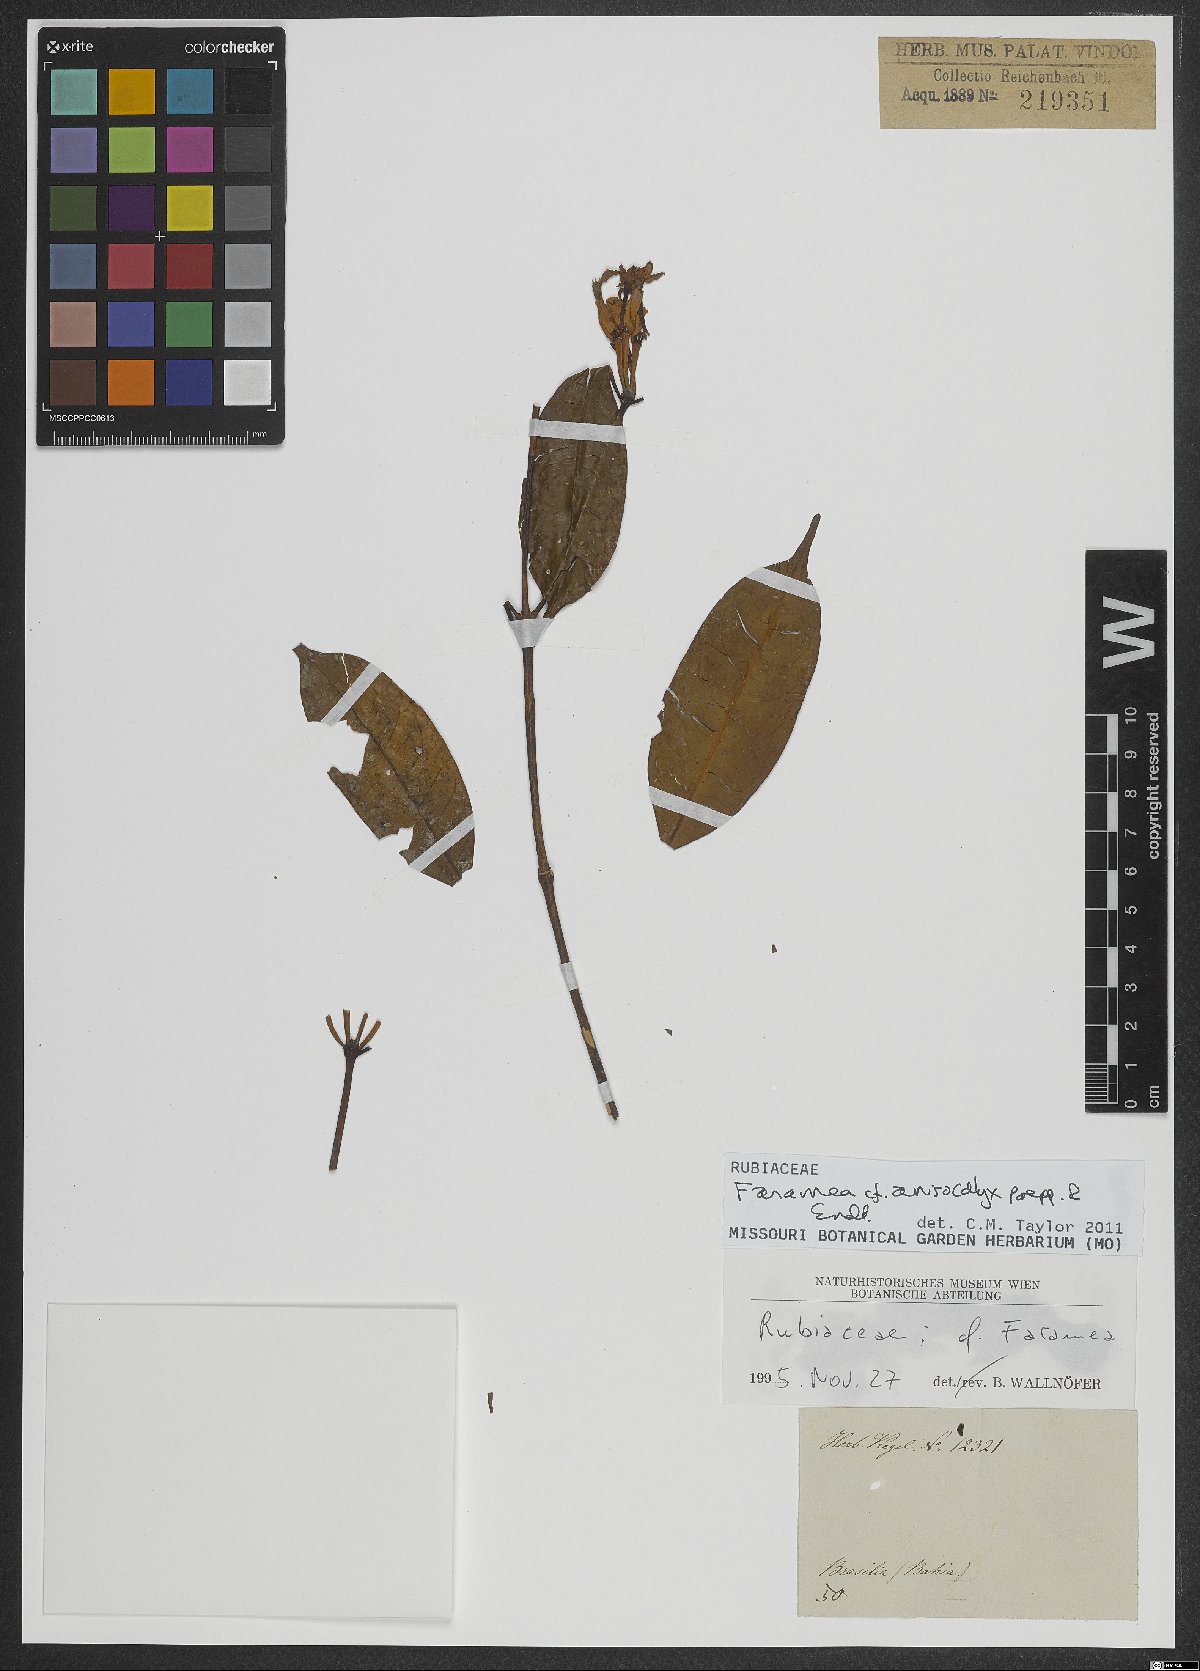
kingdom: Plantae
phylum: Tracheophyta
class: Magnoliopsida
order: Gentianales
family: Rubiaceae
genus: Faramea
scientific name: Faramea anisocalyx
